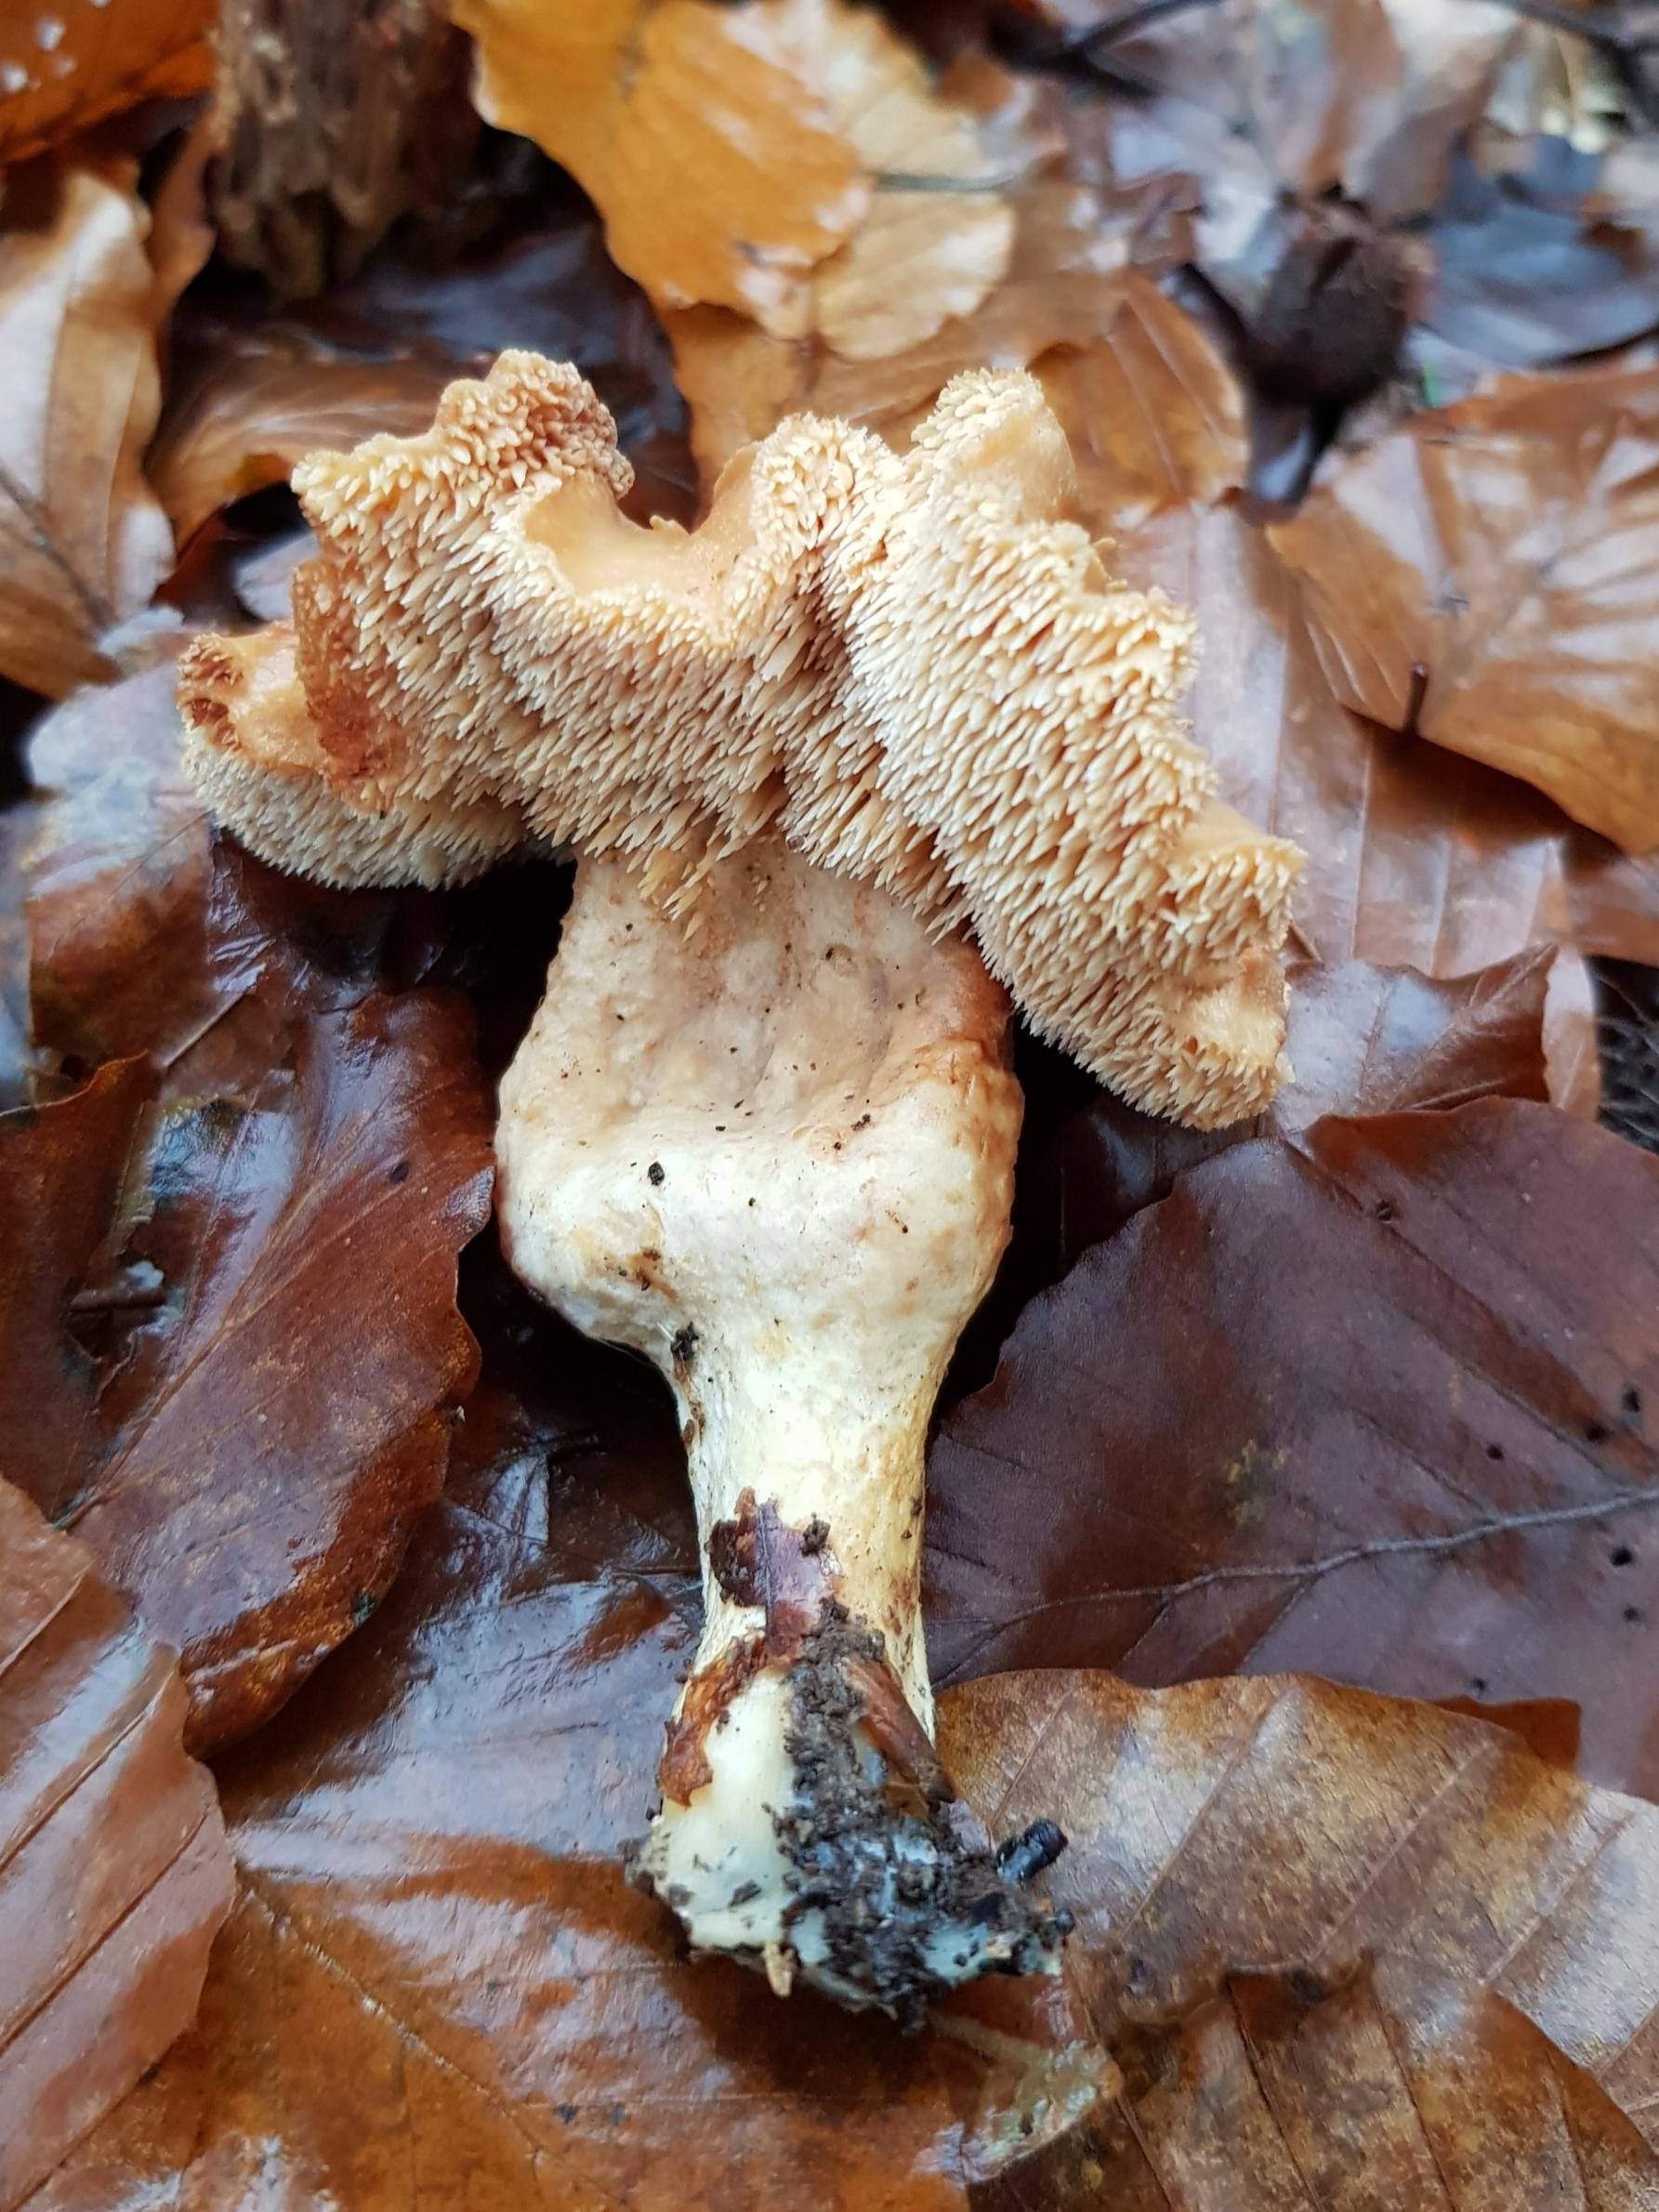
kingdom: Fungi
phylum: Basidiomycota
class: Agaricomycetes
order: Cantharellales
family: Hydnaceae
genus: Hydnum
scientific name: Hydnum
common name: pigsvamp
